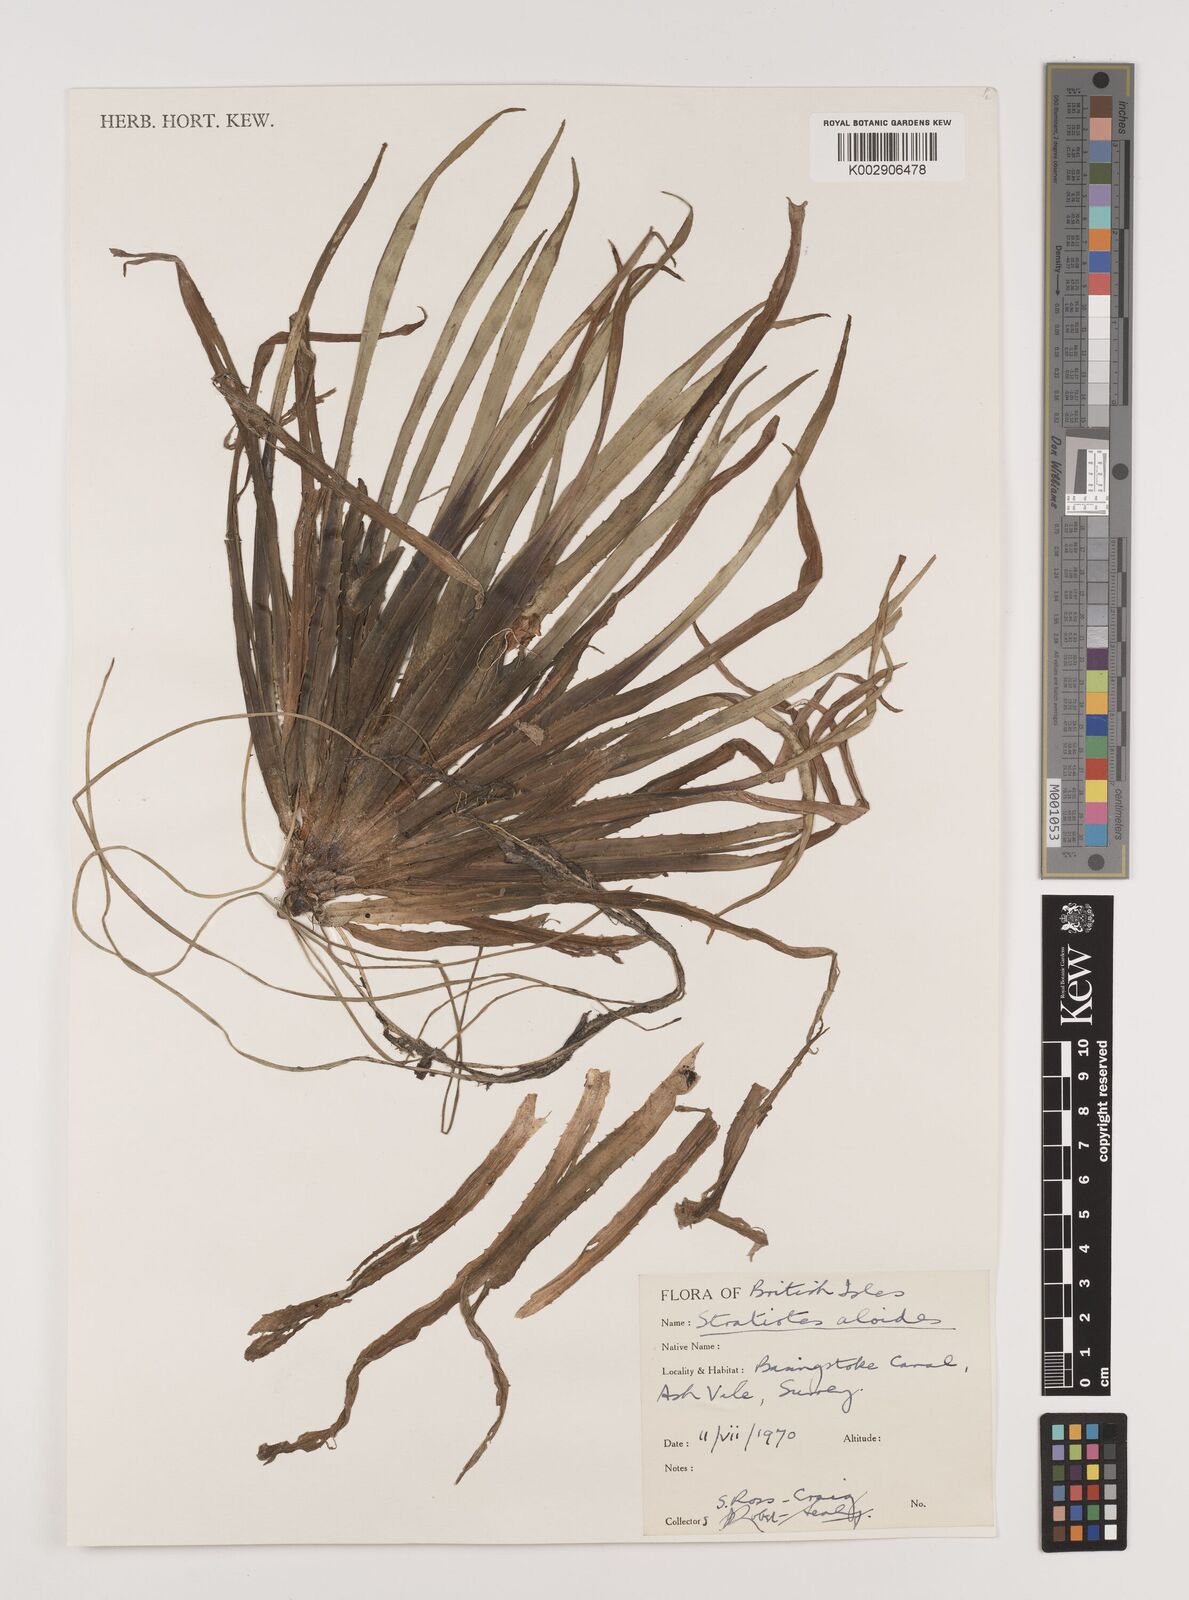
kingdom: Plantae
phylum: Tracheophyta
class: Liliopsida
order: Alismatales
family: Hydrocharitaceae
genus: Stratiotes
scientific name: Stratiotes aloides
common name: Water-soldier
